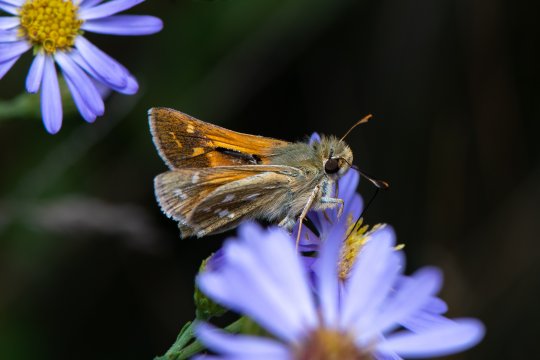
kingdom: Animalia
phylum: Arthropoda
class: Insecta
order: Lepidoptera
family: Hesperiidae
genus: Hesperia
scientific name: Hesperia comma
